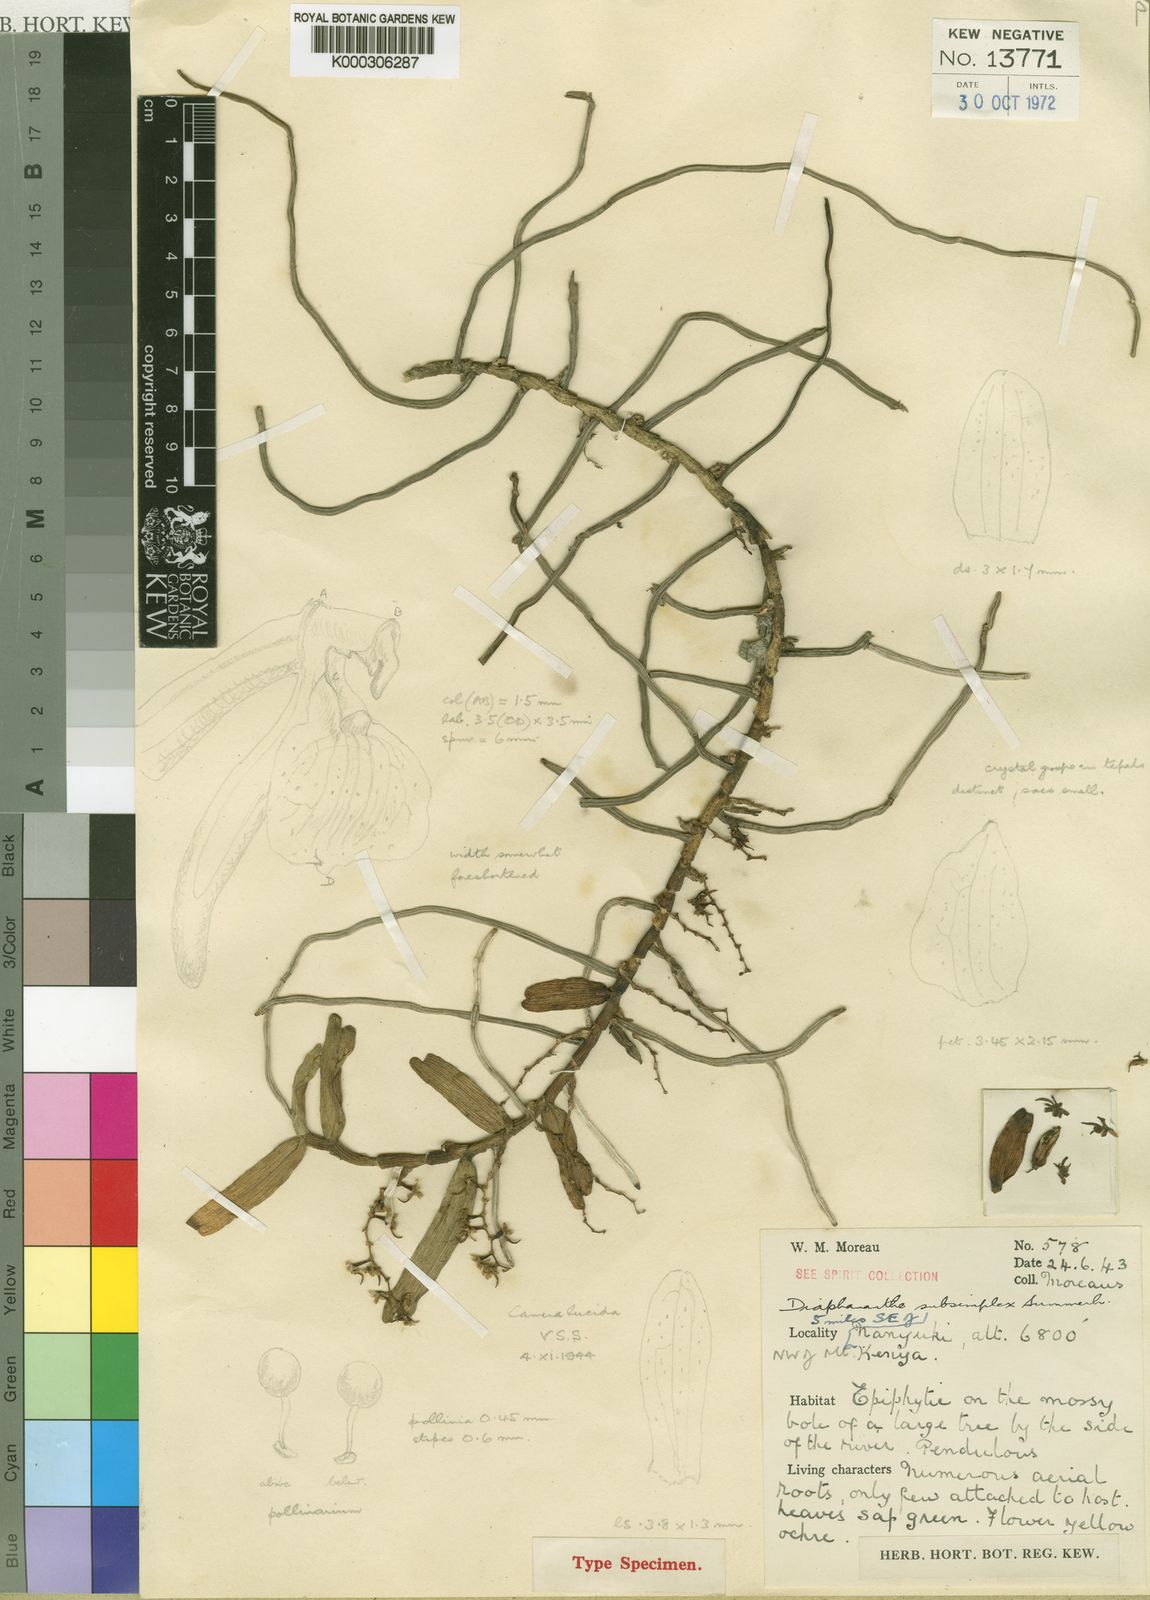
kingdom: Plantae
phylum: Tracheophyta
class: Liliopsida
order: Asparagales
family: Orchidaceae
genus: Rhipidoglossum
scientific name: Rhipidoglossum subsimplex
